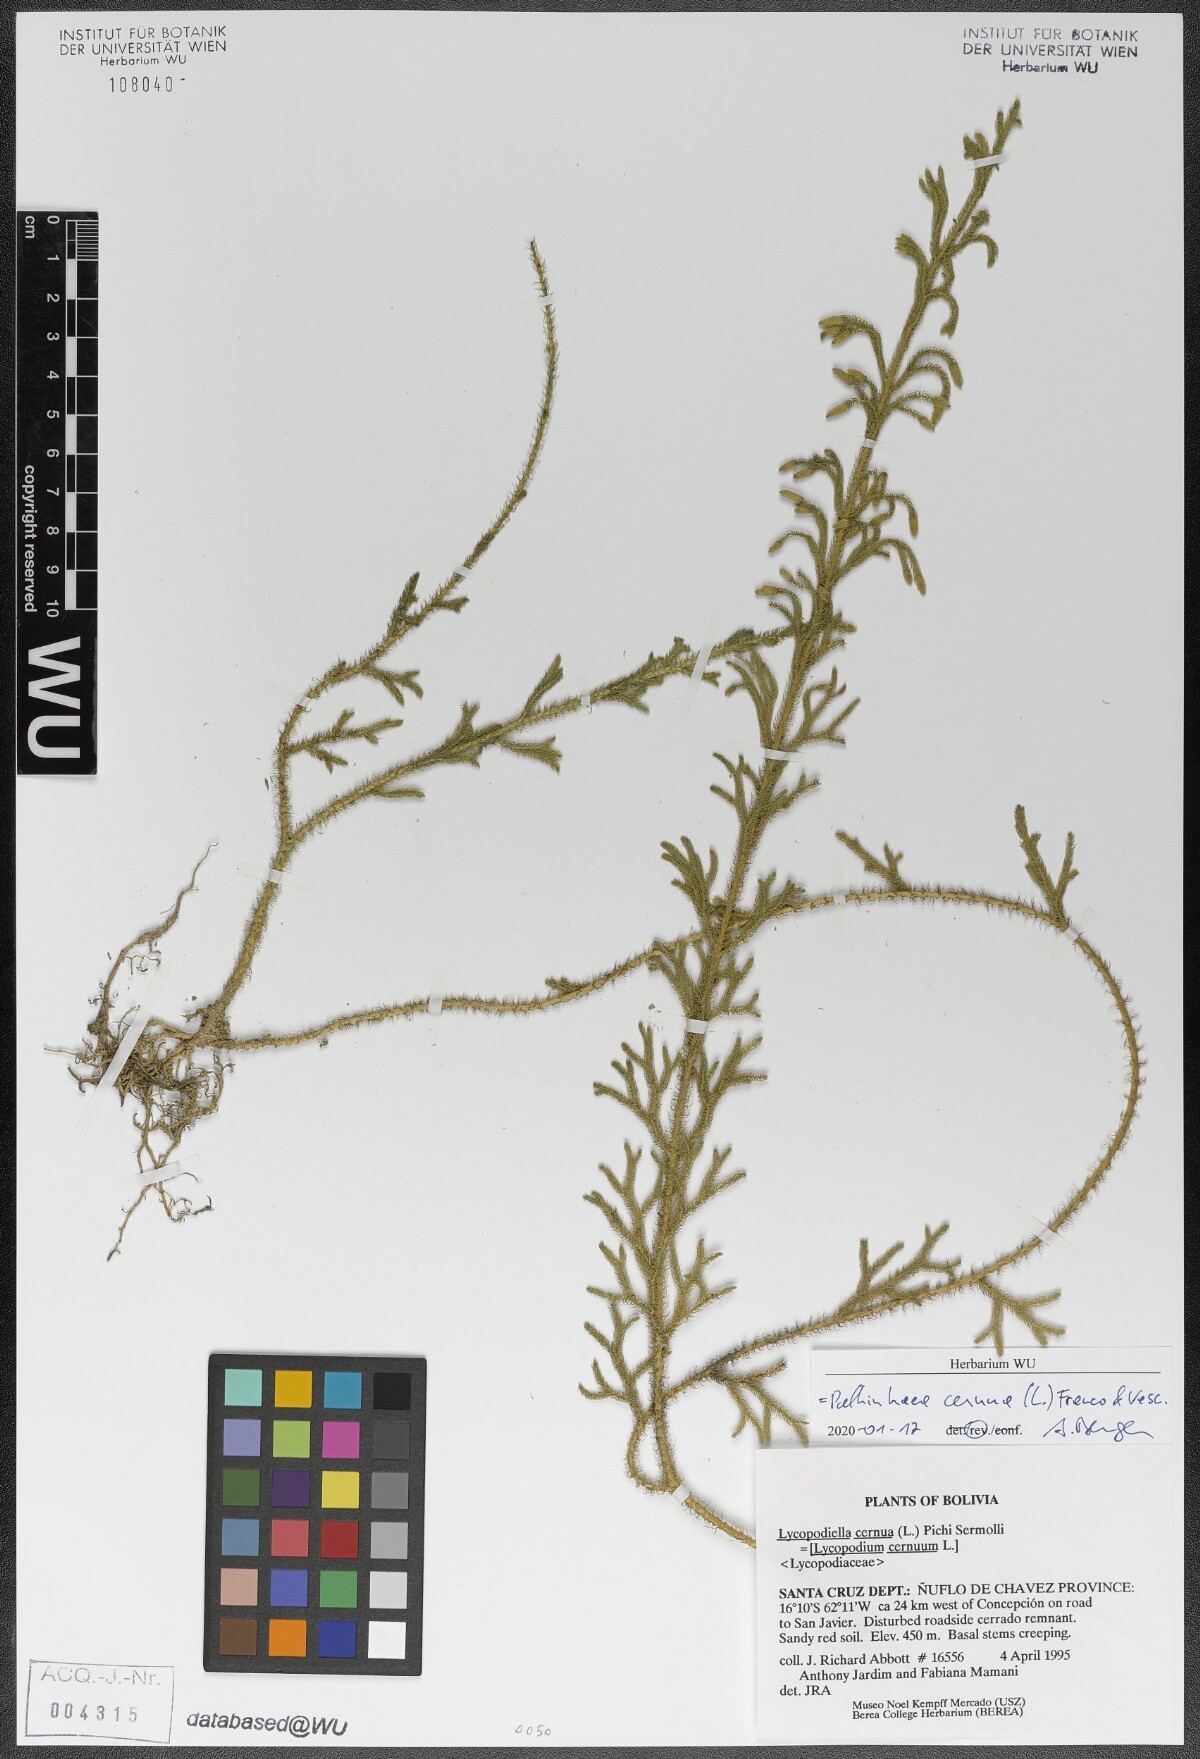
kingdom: Plantae
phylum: Tracheophyta
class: Lycopodiopsida
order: Lycopodiales
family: Lycopodiaceae
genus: Palhinhaea
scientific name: Palhinhaea cernua
